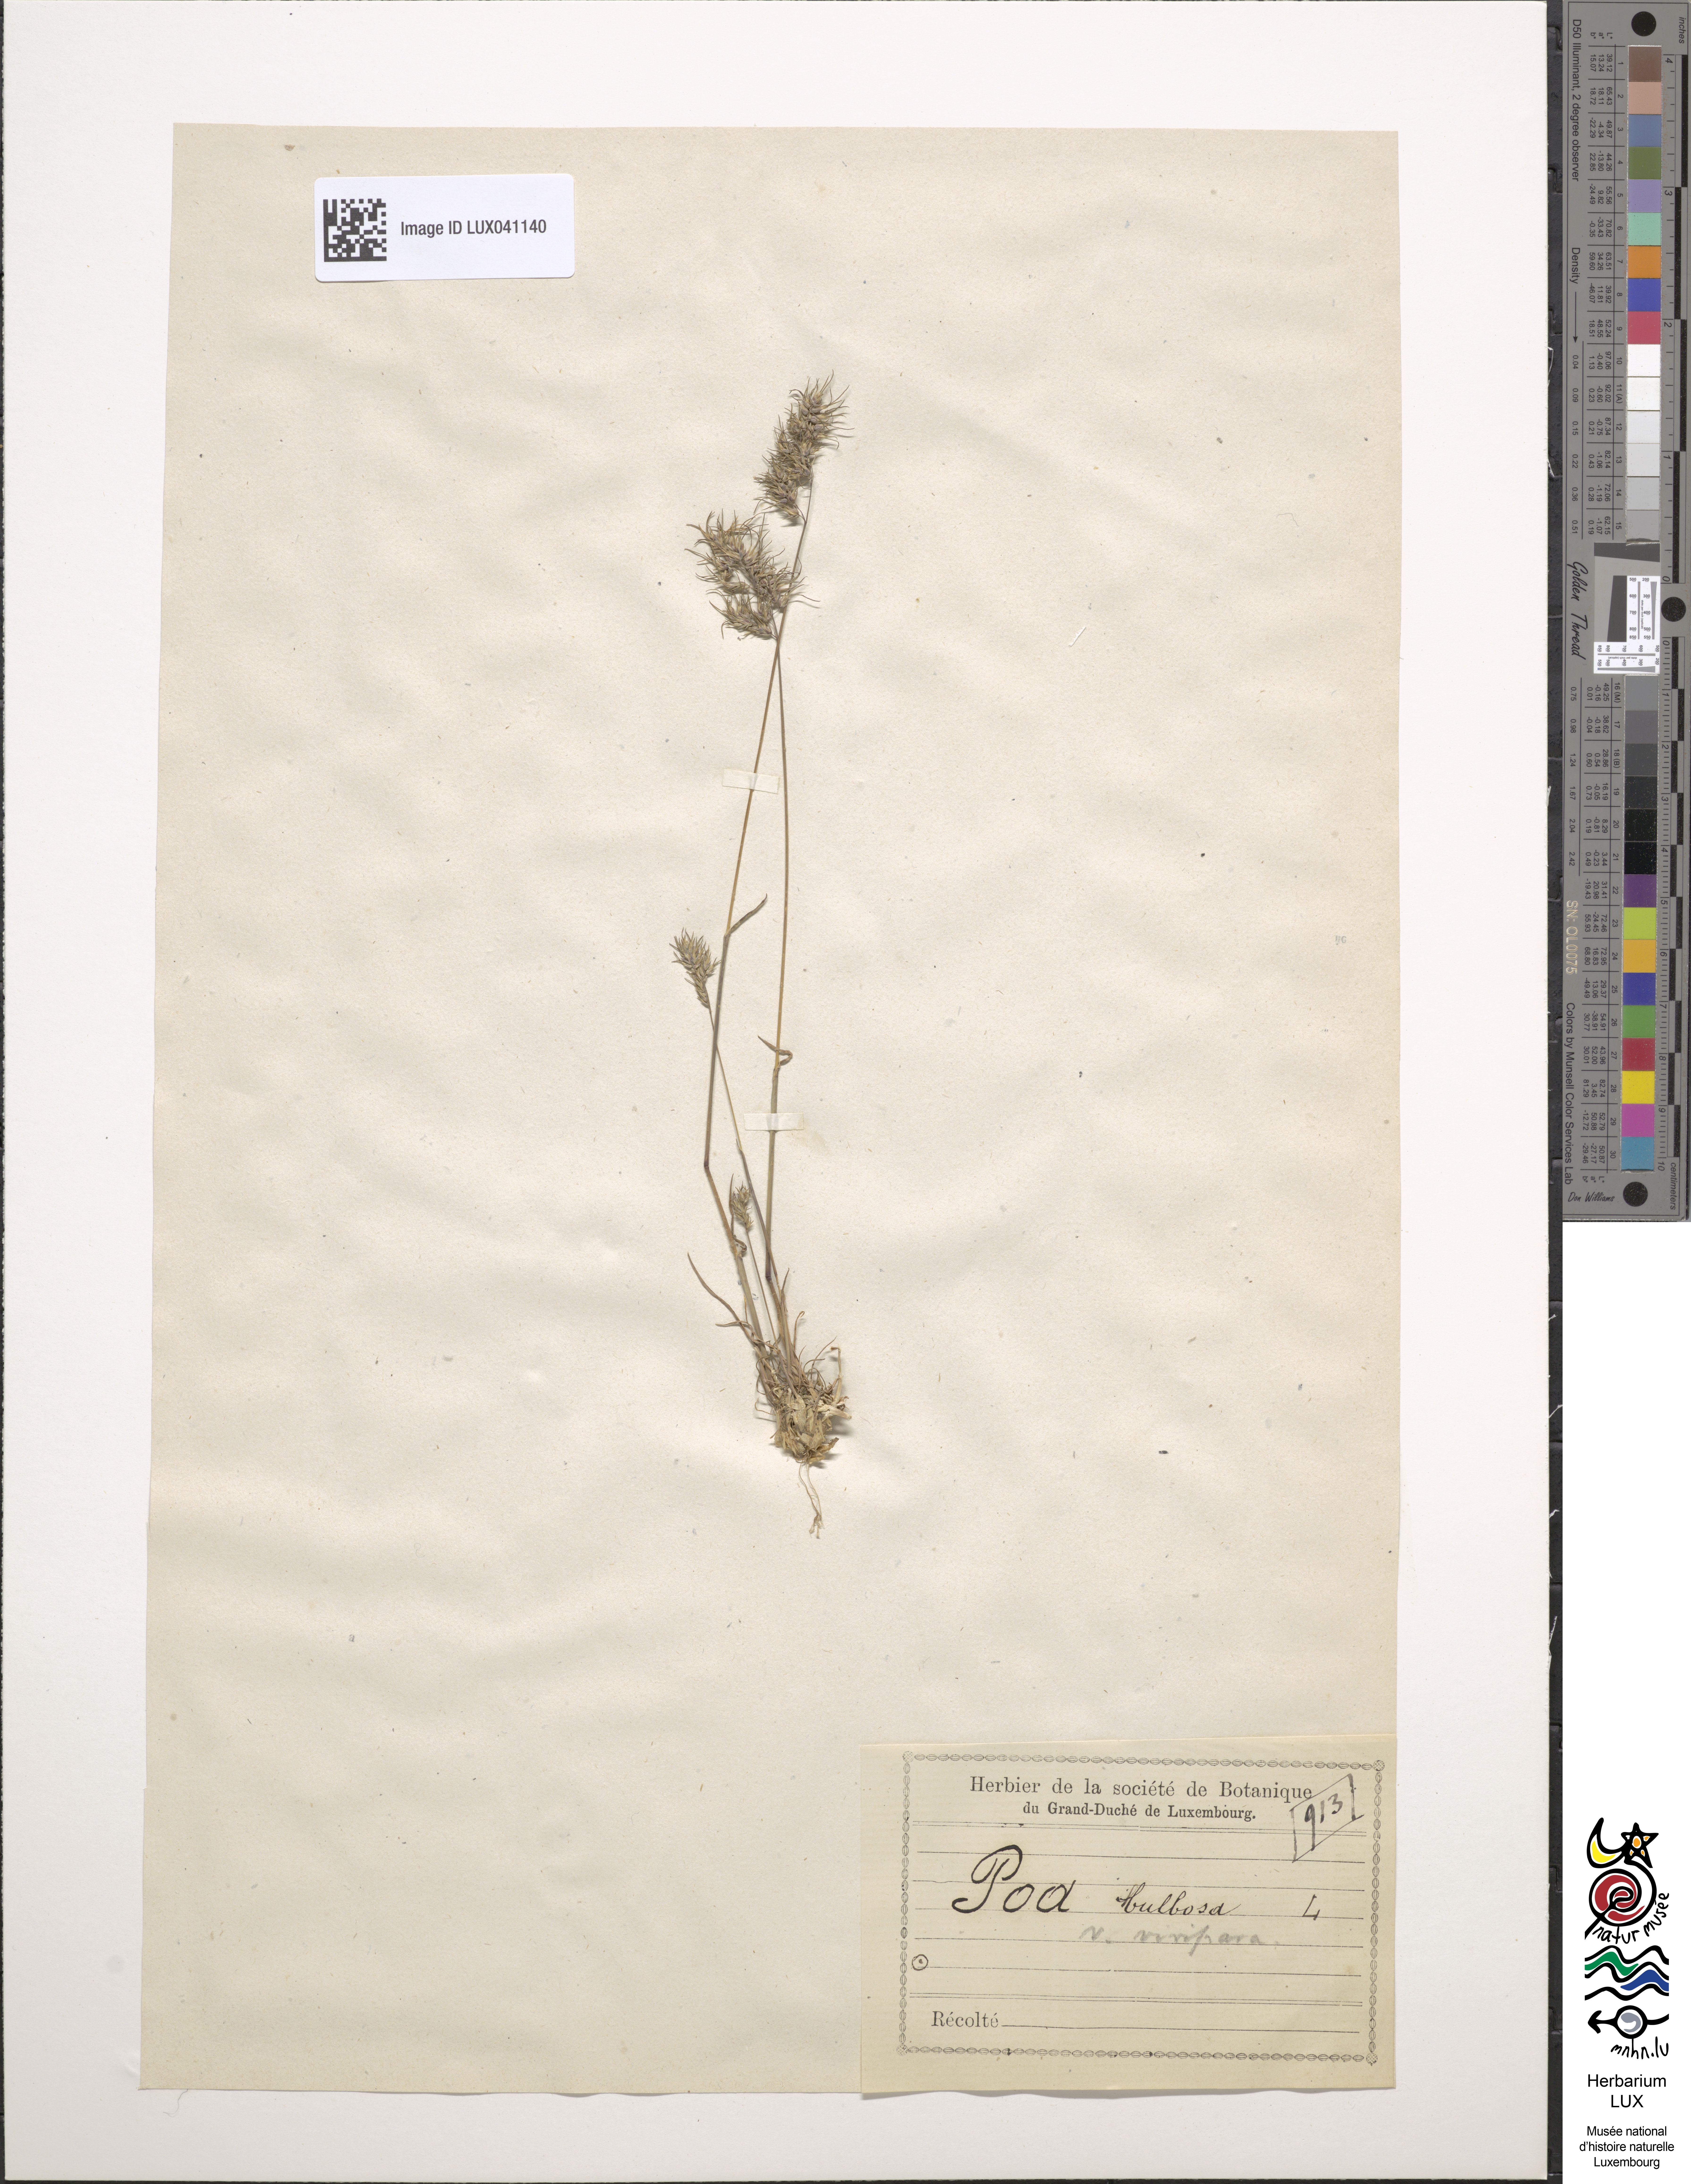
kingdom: Plantae
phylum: Tracheophyta
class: Liliopsida
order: Poales
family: Poaceae
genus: Poa
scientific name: Poa bulbosa
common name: Bulbous bluegrass
